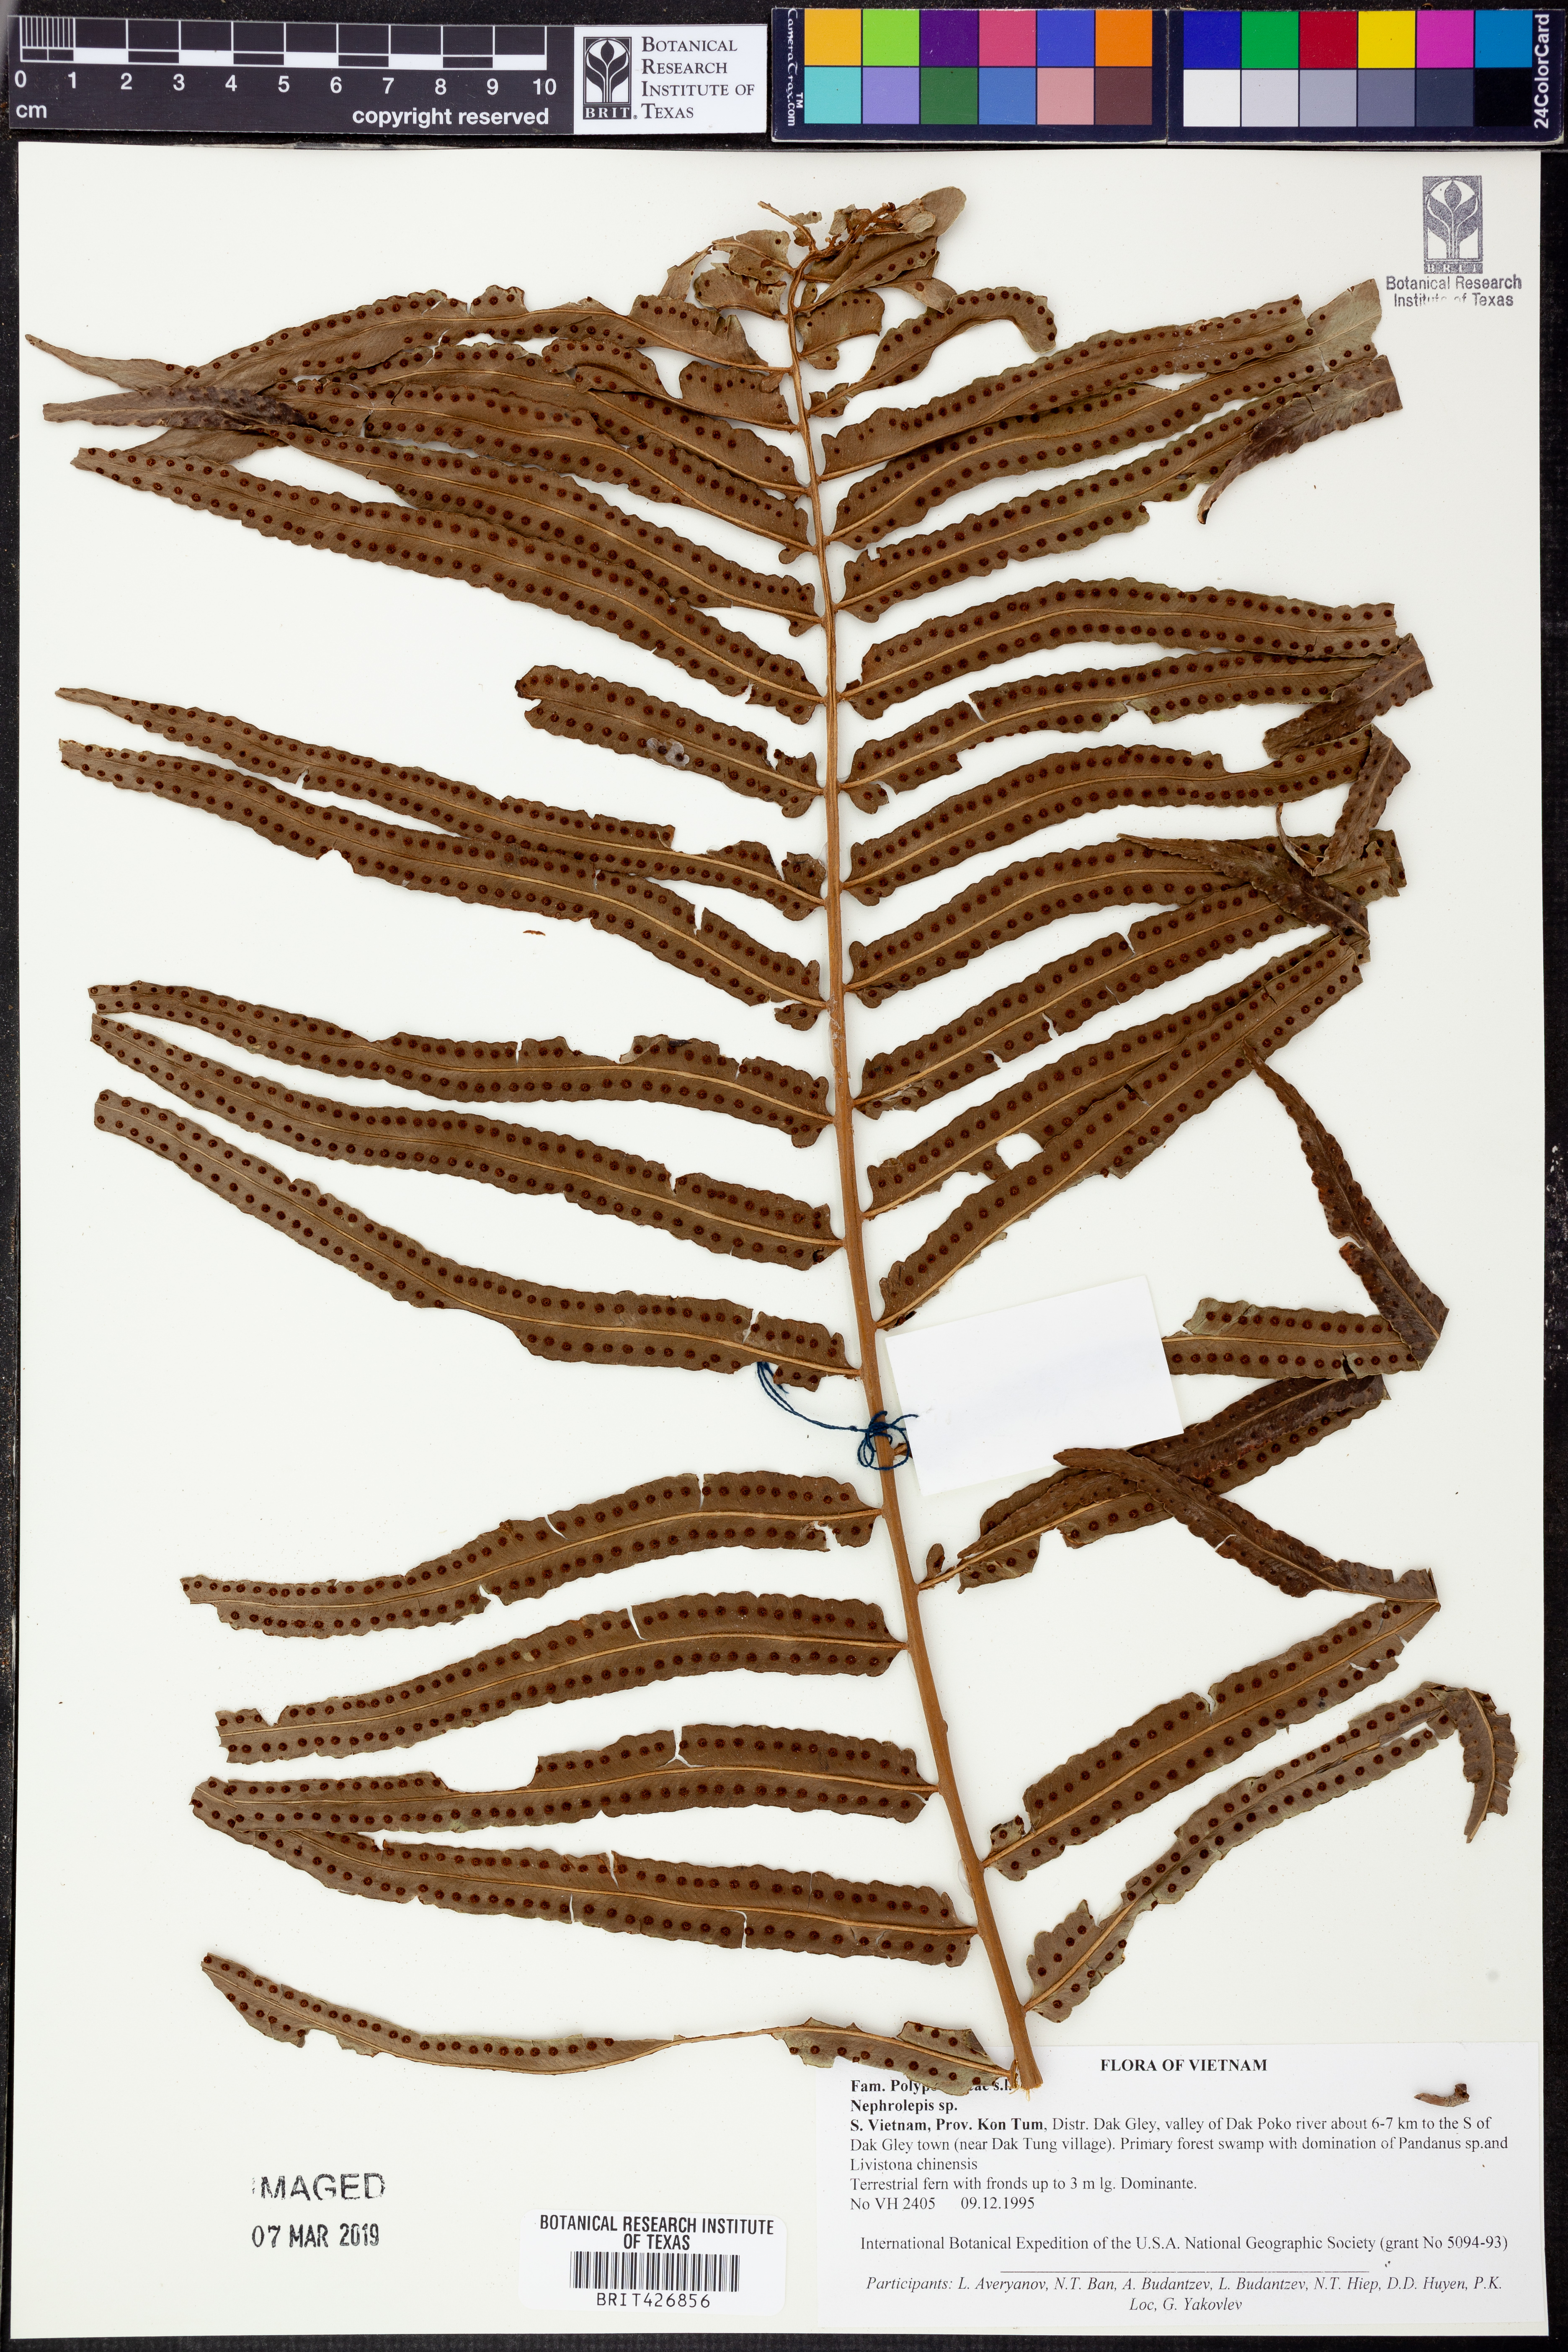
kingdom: Plantae
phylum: Tracheophyta
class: Polypodiopsida
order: Polypodiales
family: Nephrolepidaceae
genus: Nephrolepis
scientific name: Nephrolepis
